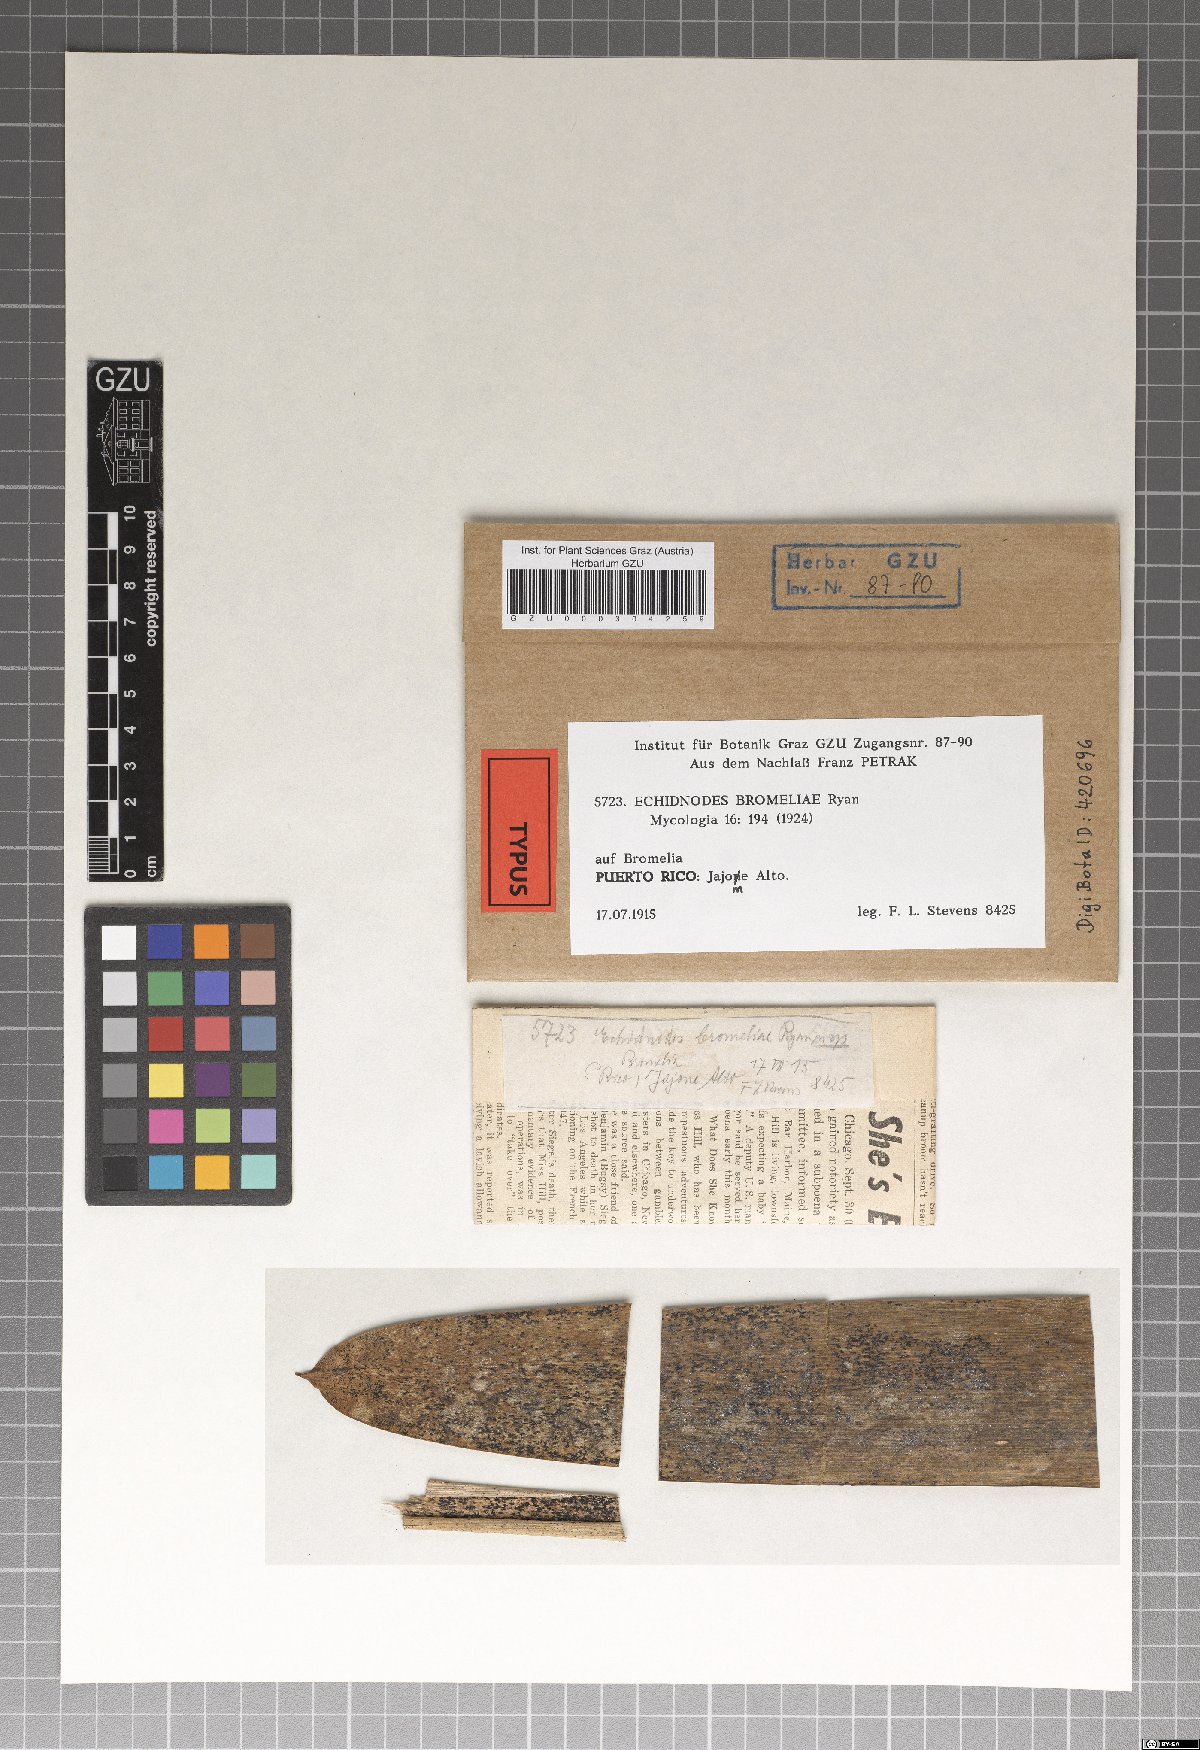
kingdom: Fungi
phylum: Ascomycota
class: Dothideomycetes
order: Asterinales
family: Asterinaceae
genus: Echidnodes
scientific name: Echidnodes bromeliae
